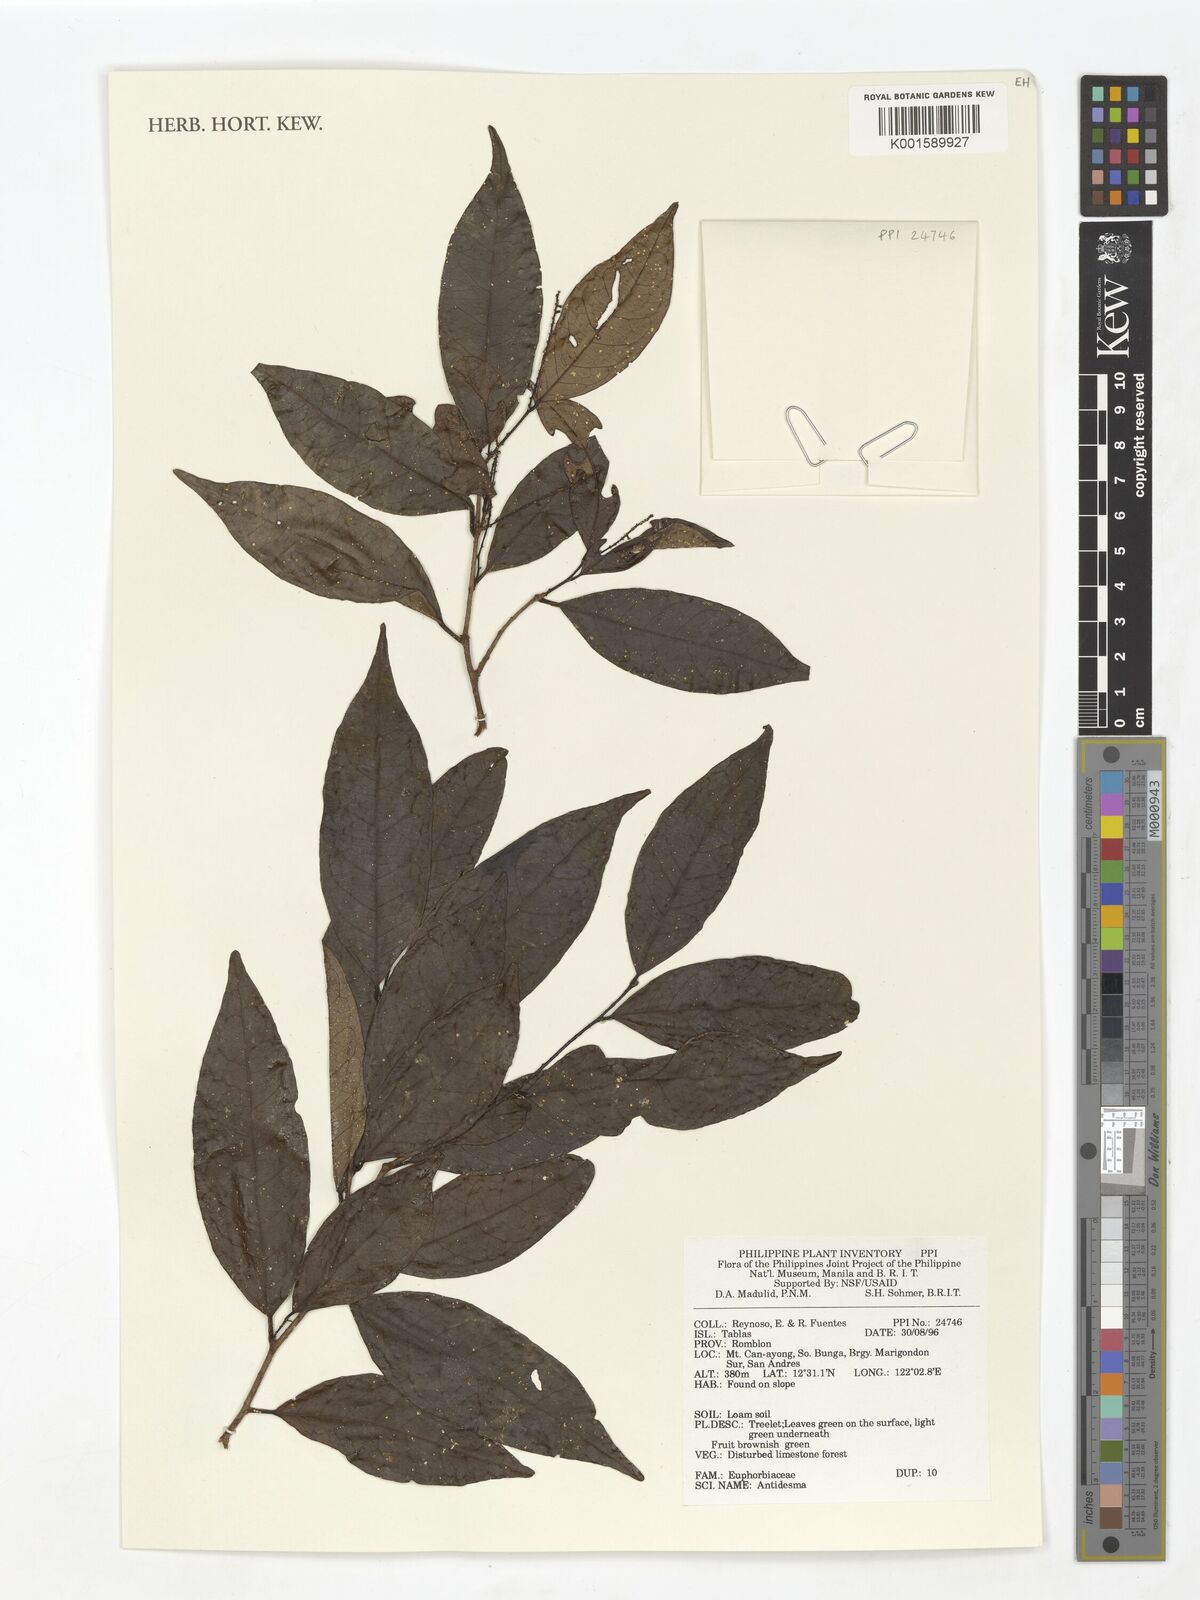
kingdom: Plantae
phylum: Tracheophyta
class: Magnoliopsida
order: Malpighiales
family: Phyllanthaceae
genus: Antidesma
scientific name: Antidesma
